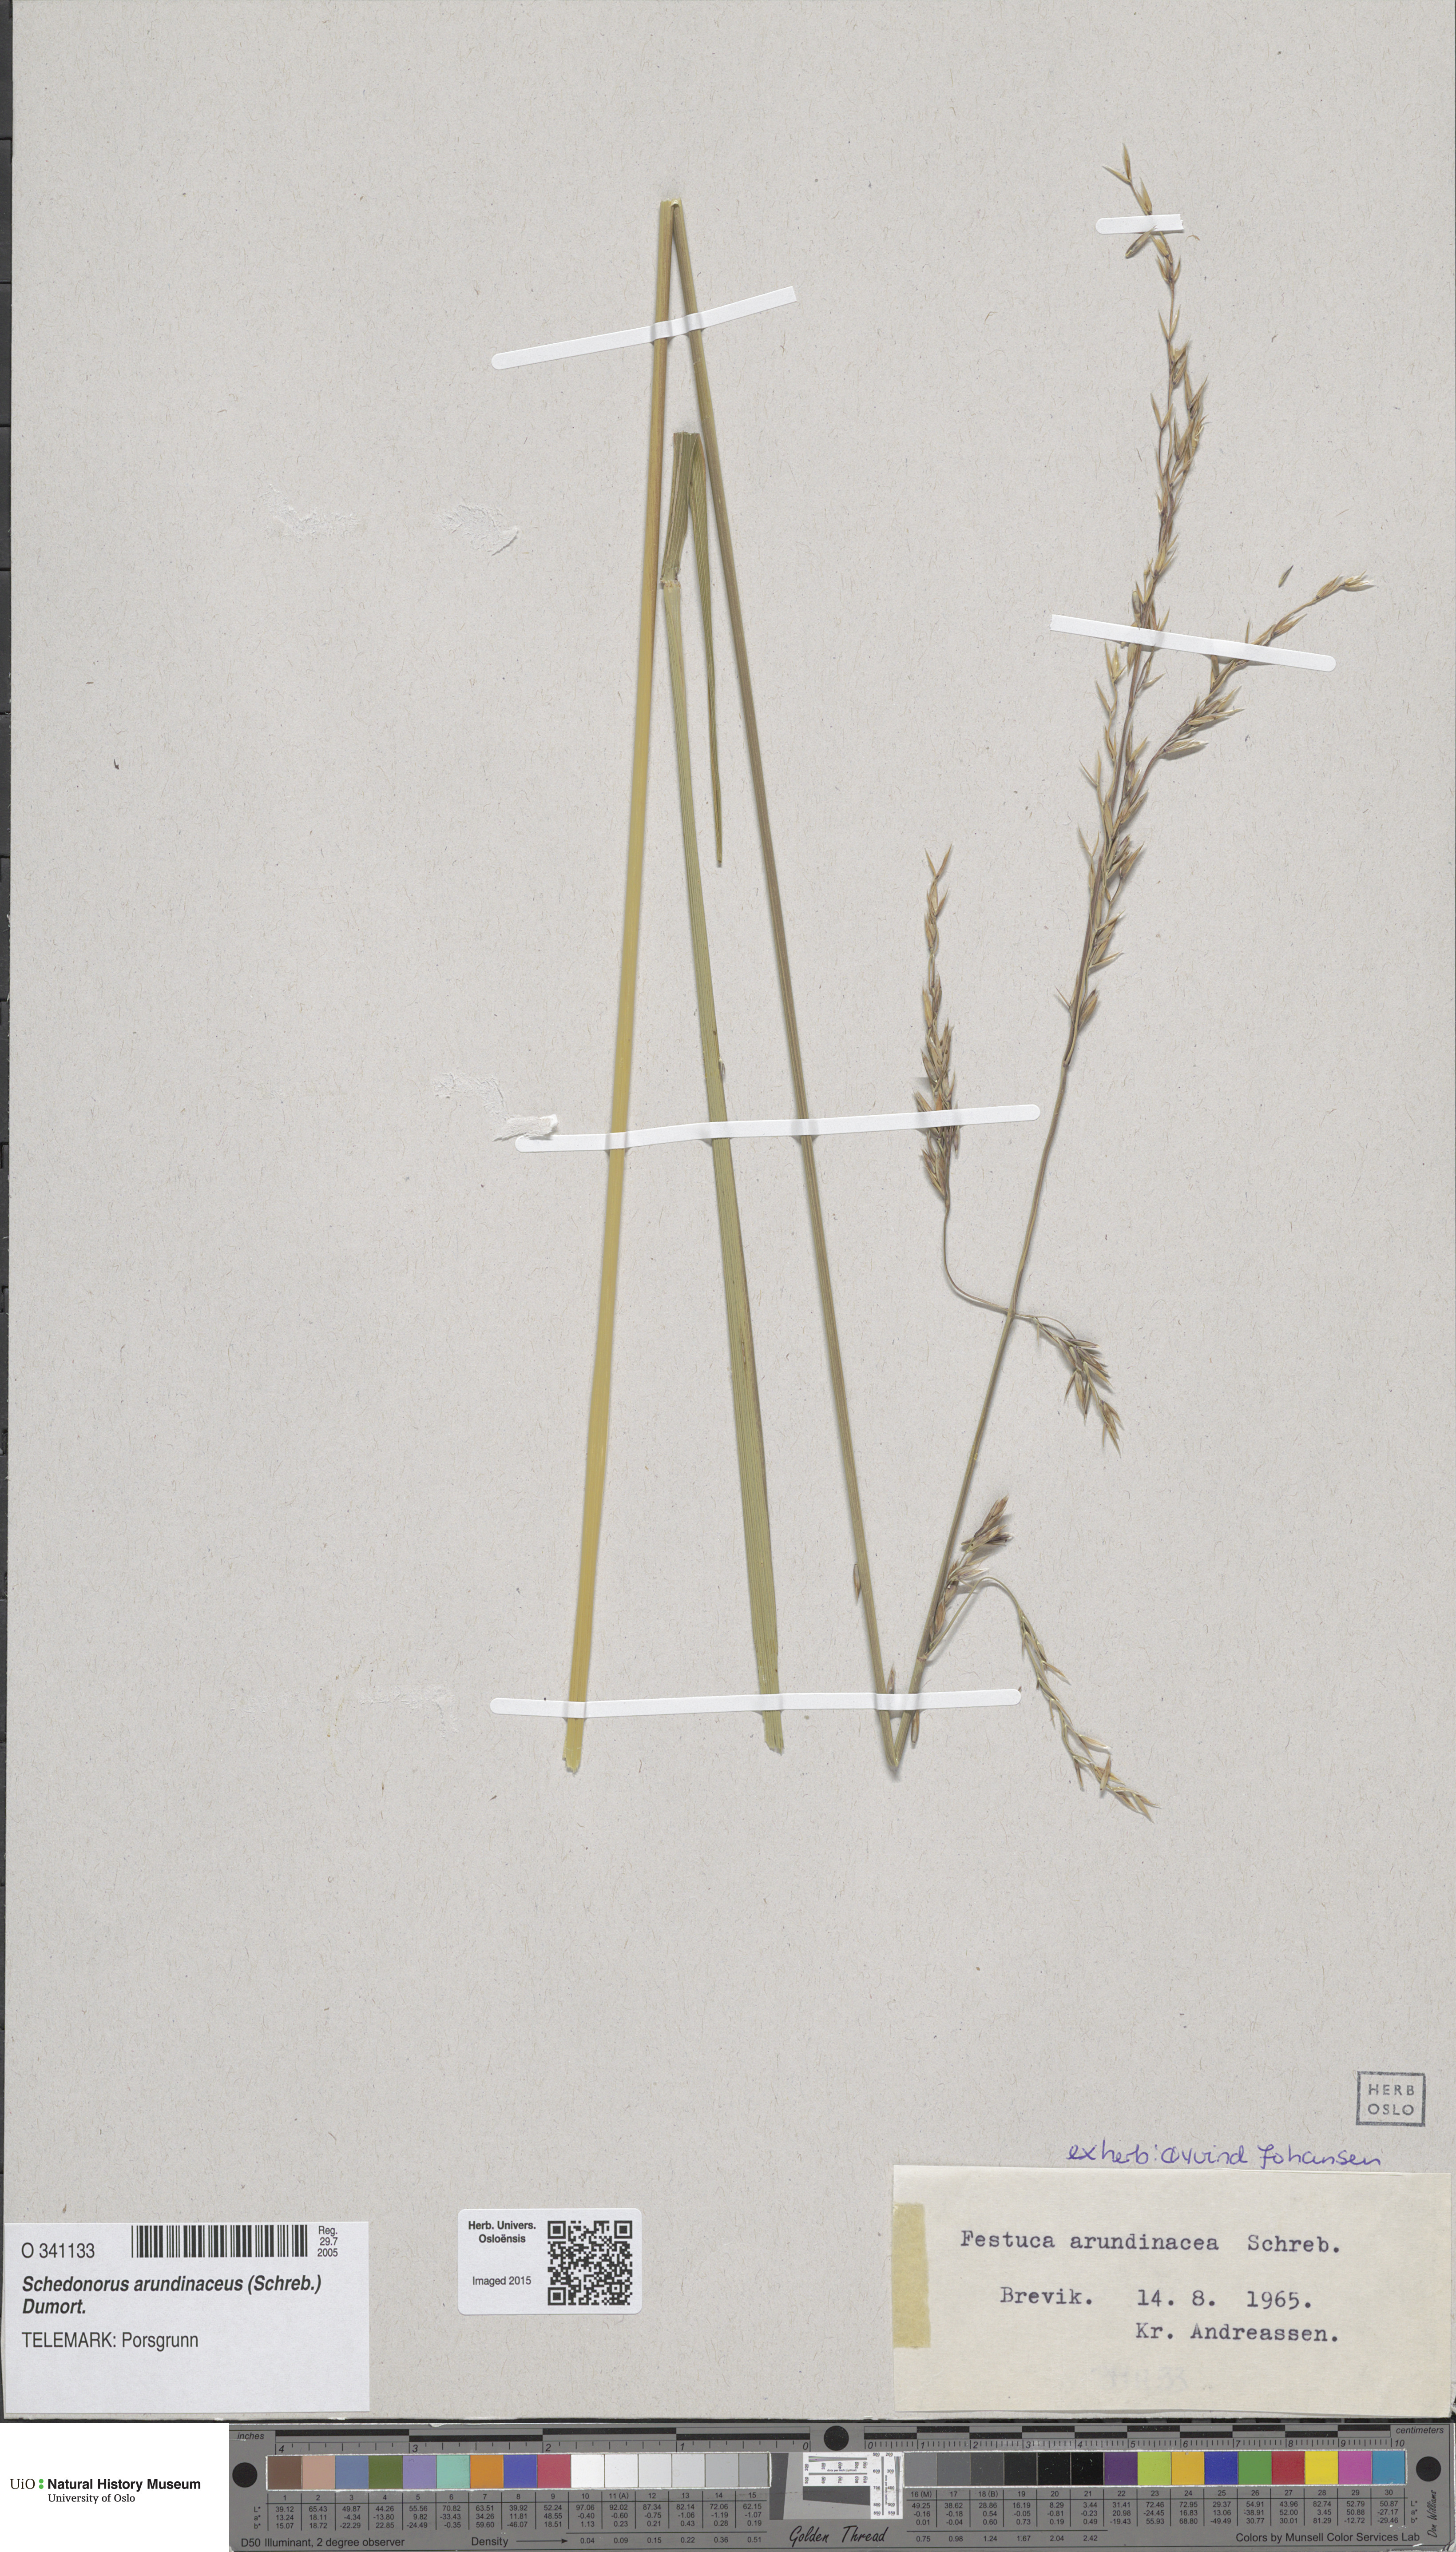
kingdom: Plantae
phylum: Tracheophyta
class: Liliopsida
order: Poales
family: Poaceae
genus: Lolium
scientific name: Lolium arundinaceum
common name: Reed fescue
